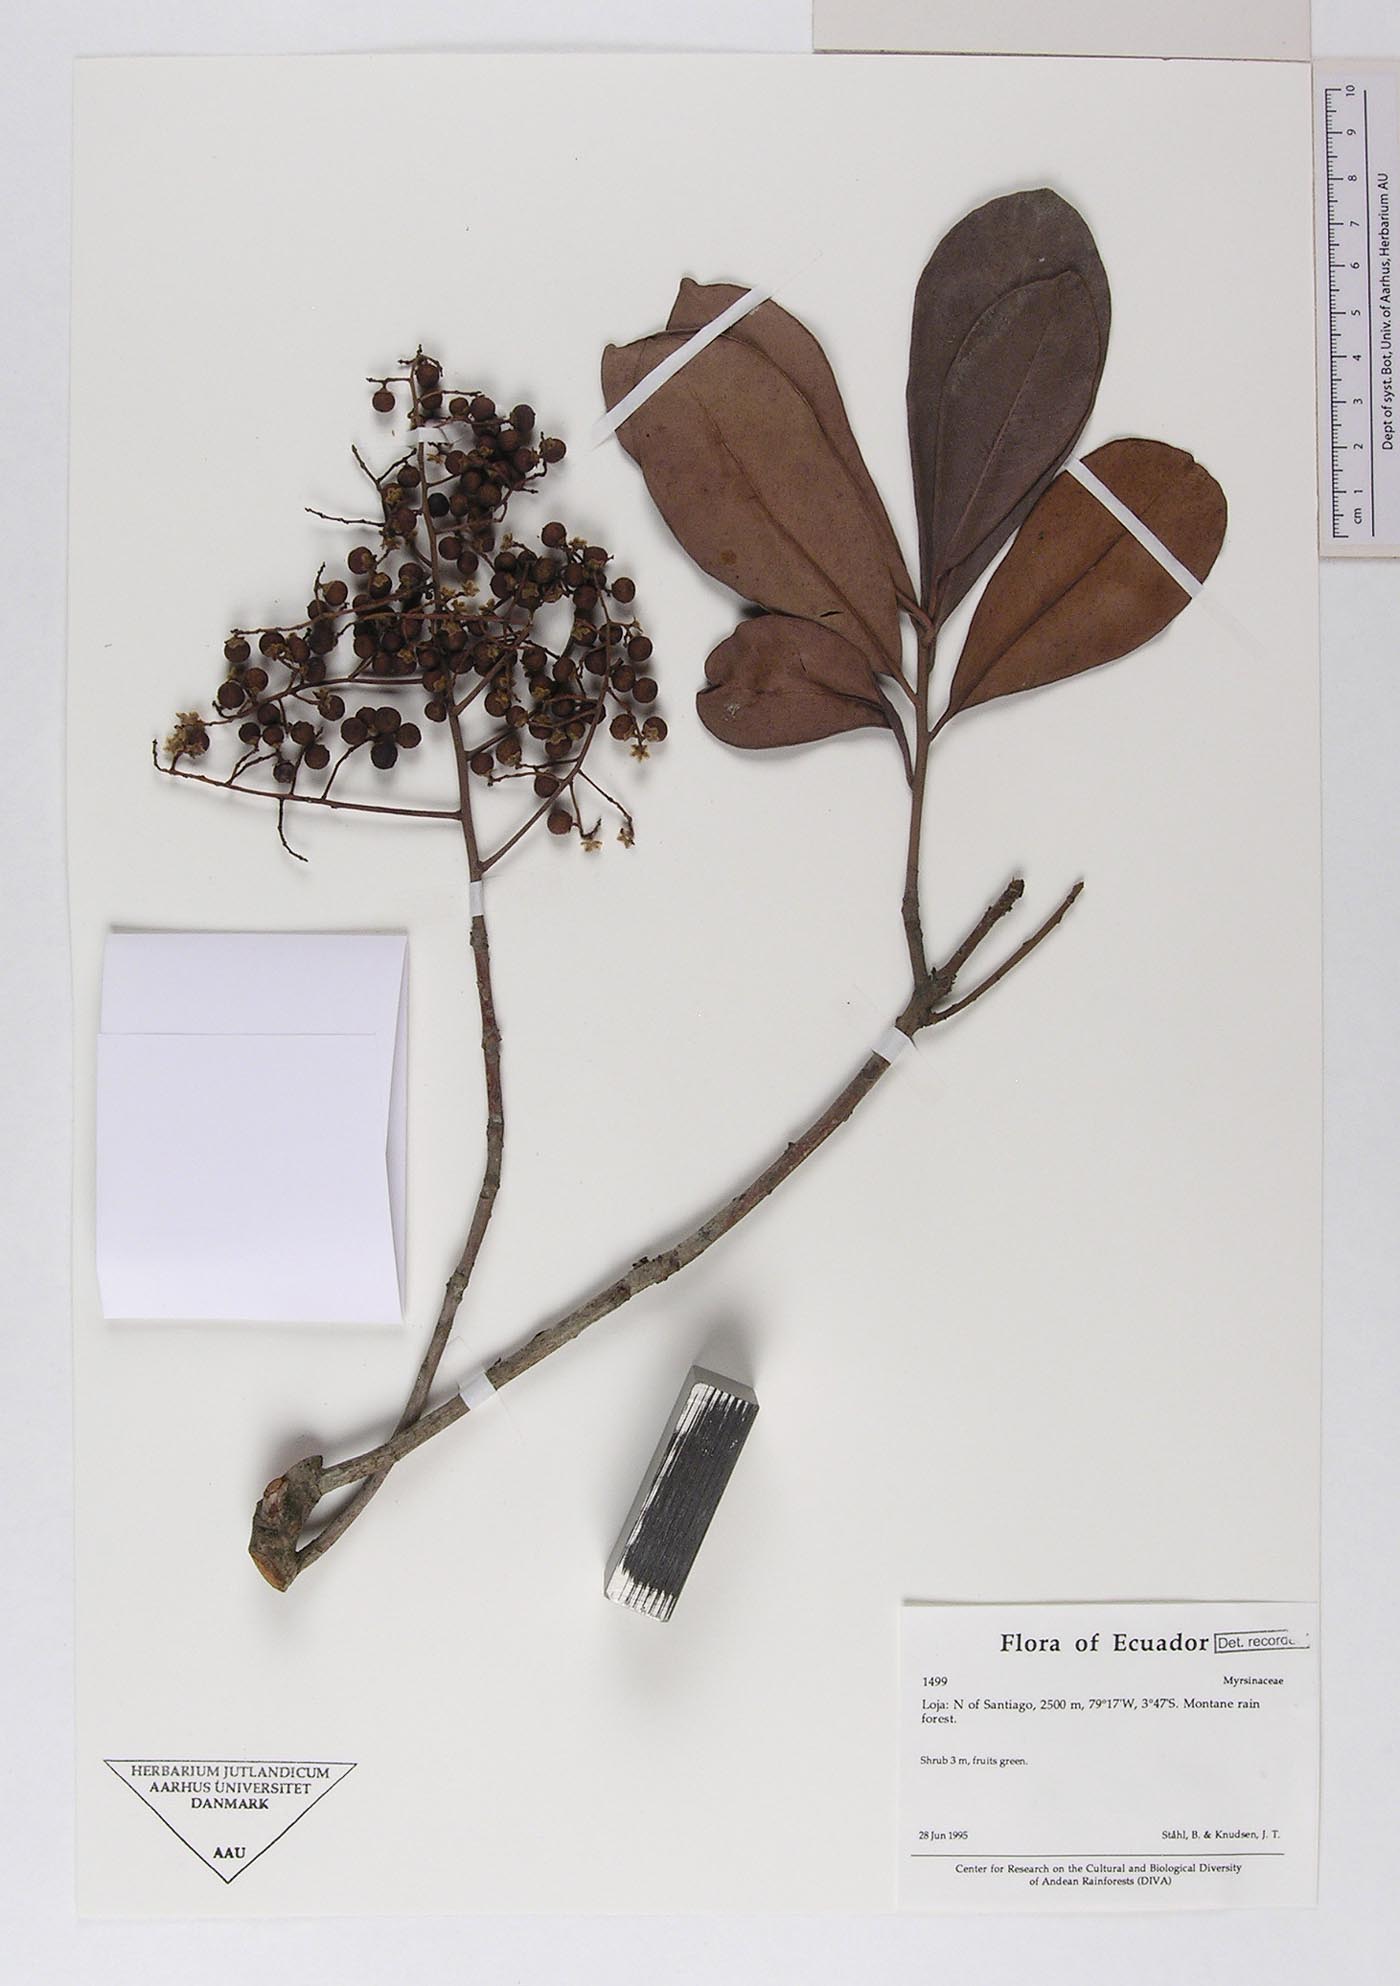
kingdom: Plantae
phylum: Tracheophyta
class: Magnoliopsida
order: Ericales
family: Primulaceae
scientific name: Primulaceae
